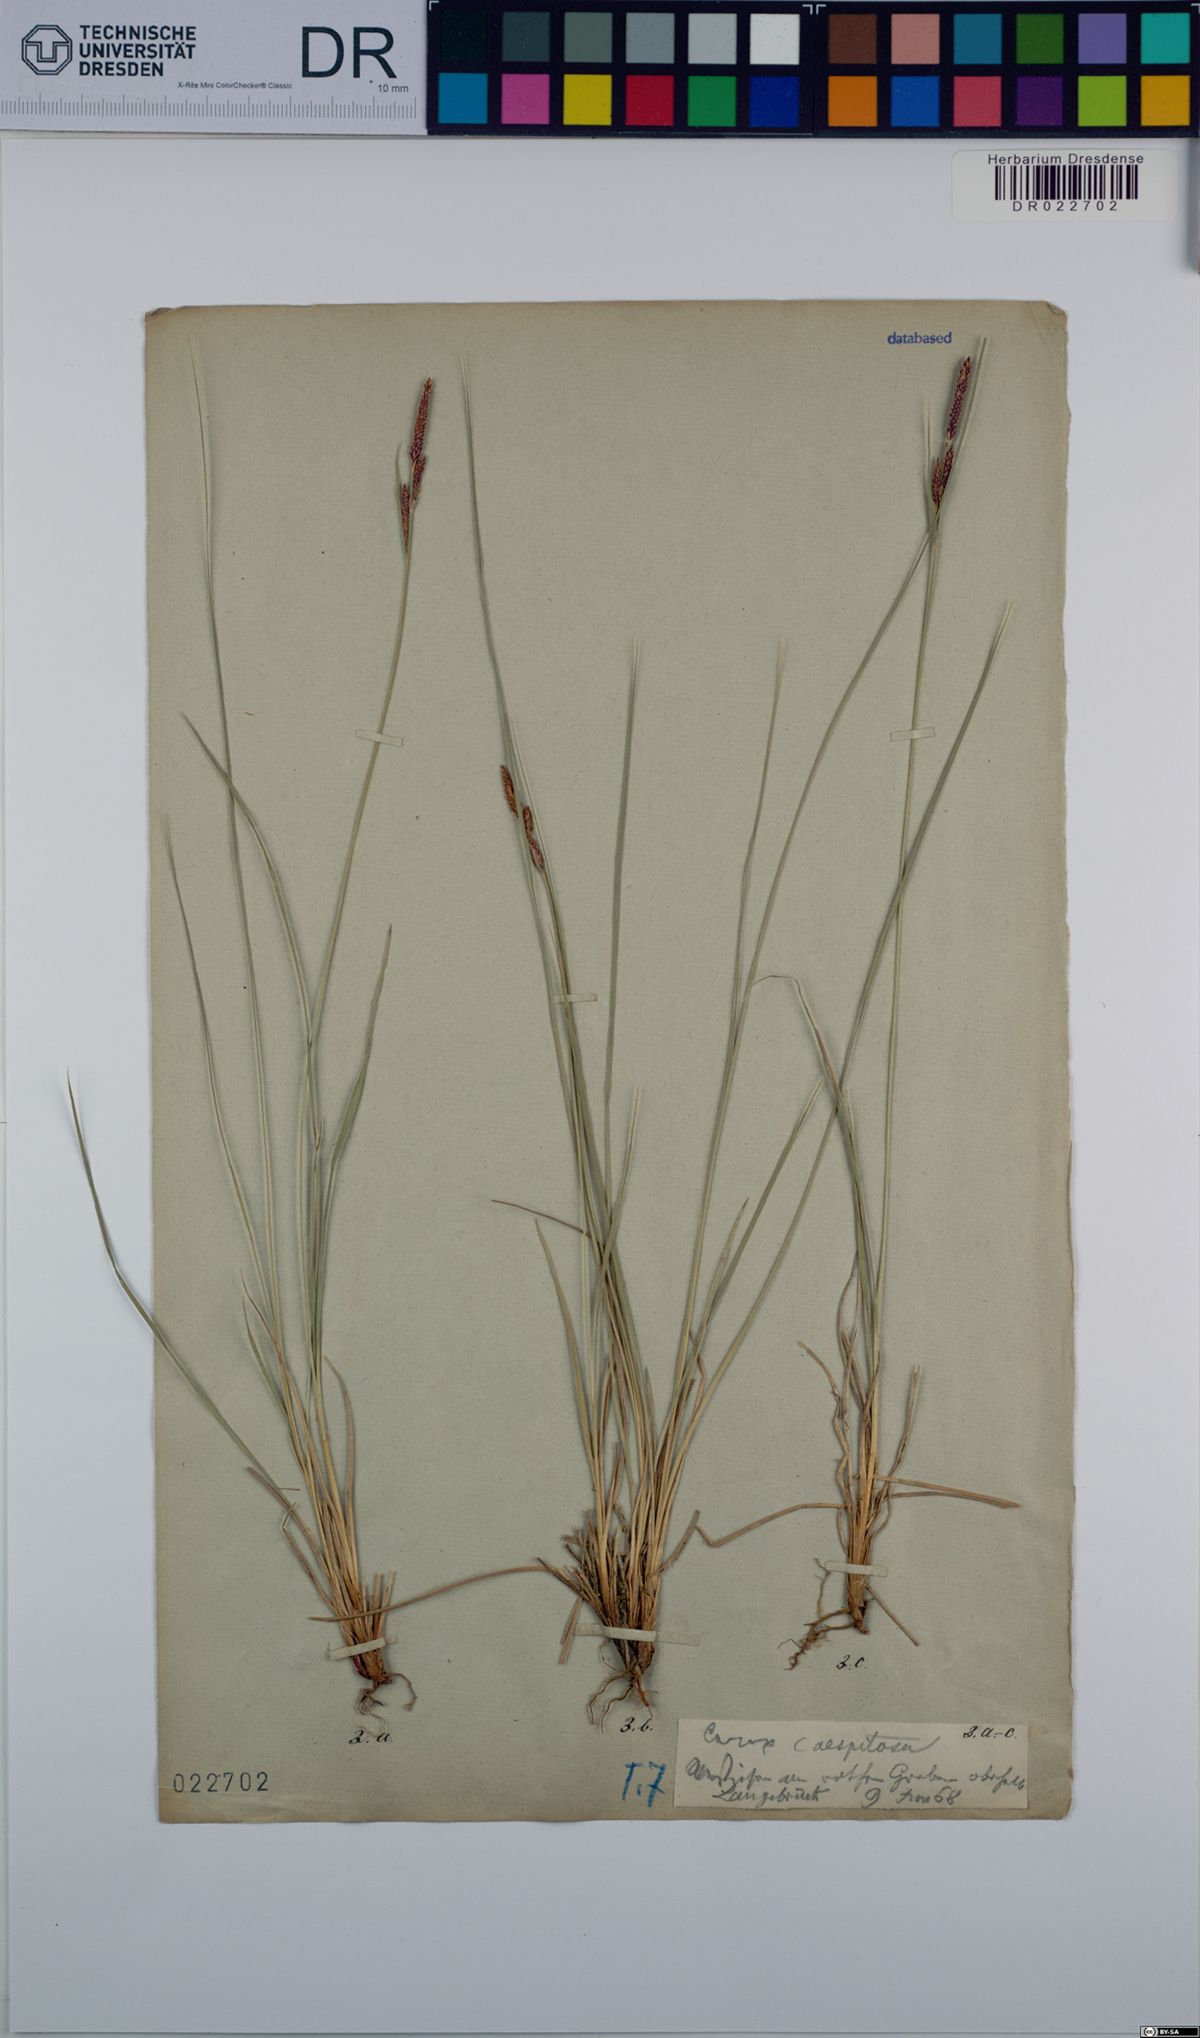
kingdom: Plantae
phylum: Tracheophyta
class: Liliopsida
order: Poales
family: Cyperaceae
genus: Carex
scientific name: Carex cespitosa
